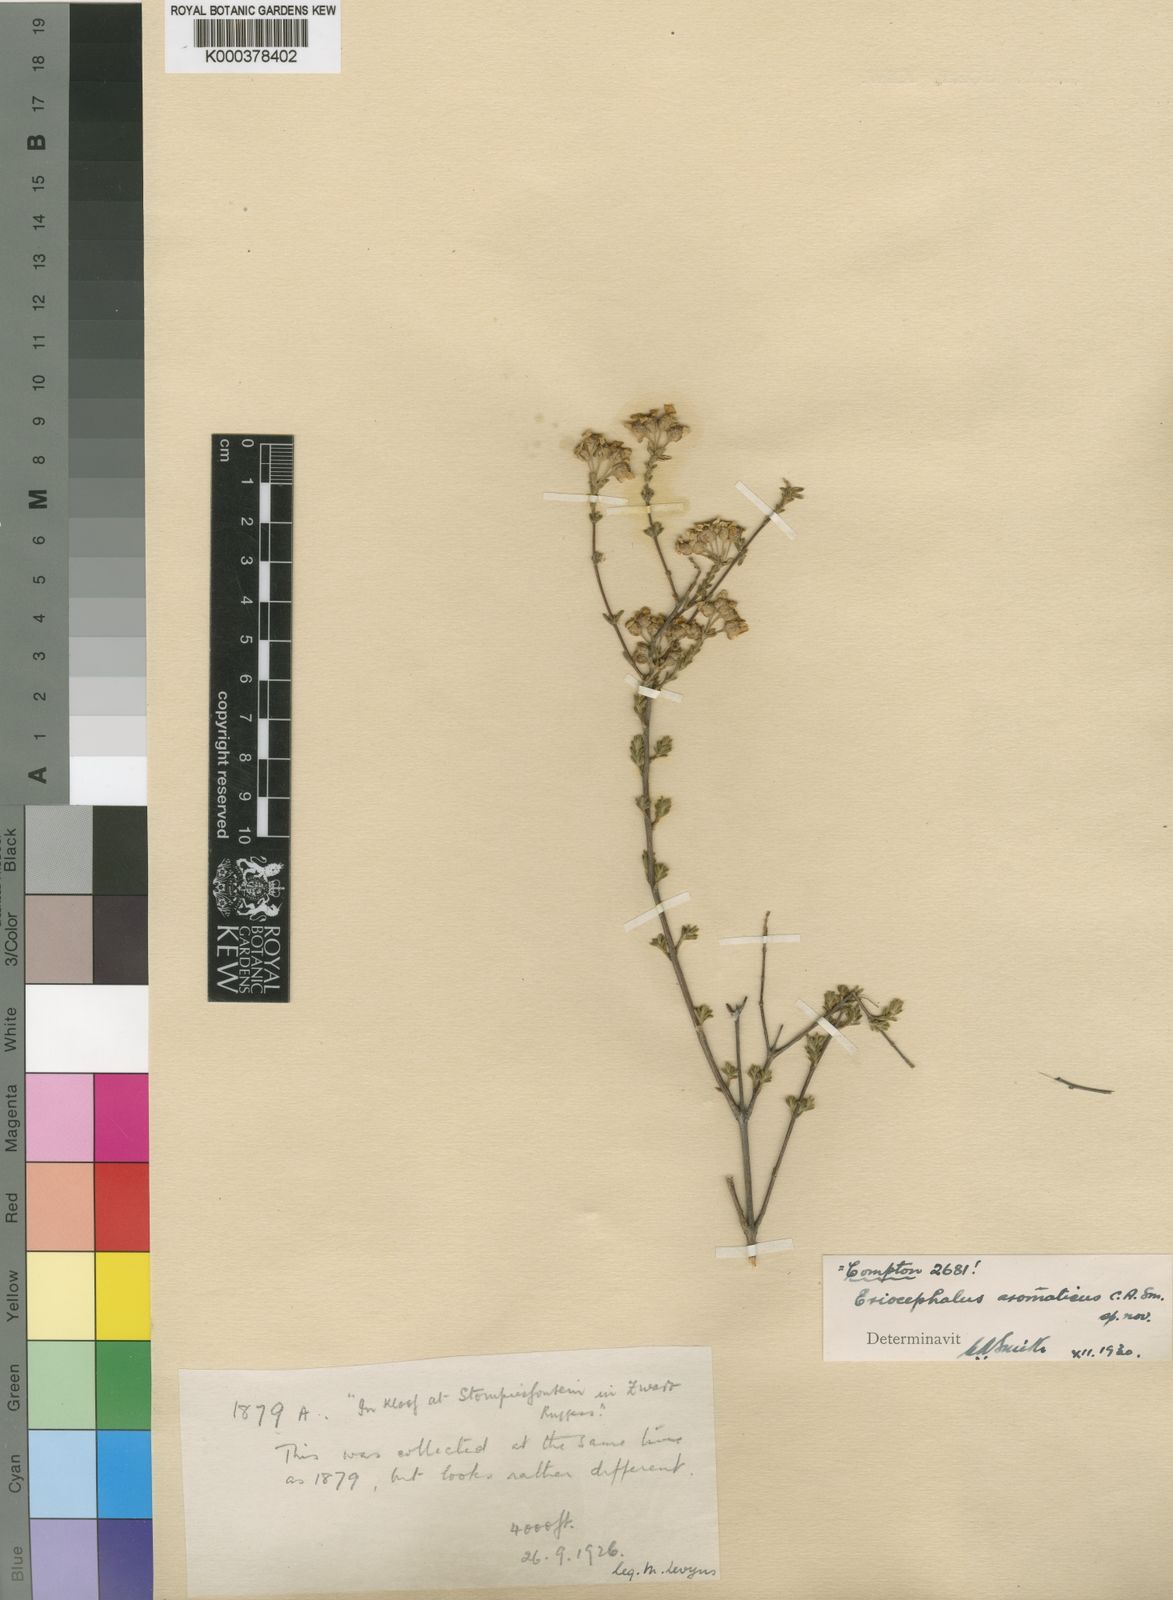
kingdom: Plantae
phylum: Tracheophyta
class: Magnoliopsida
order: Asterales
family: Asteraceae
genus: Eriocephalus
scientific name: Eriocephalus aromaticus
